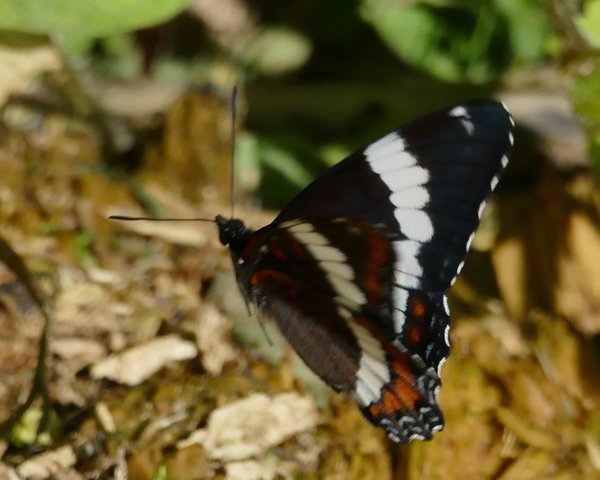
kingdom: Animalia
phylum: Arthropoda
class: Insecta
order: Lepidoptera
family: Nymphalidae
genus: Limenitis
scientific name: Limenitis arthemis
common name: Red-spotted Admiral
